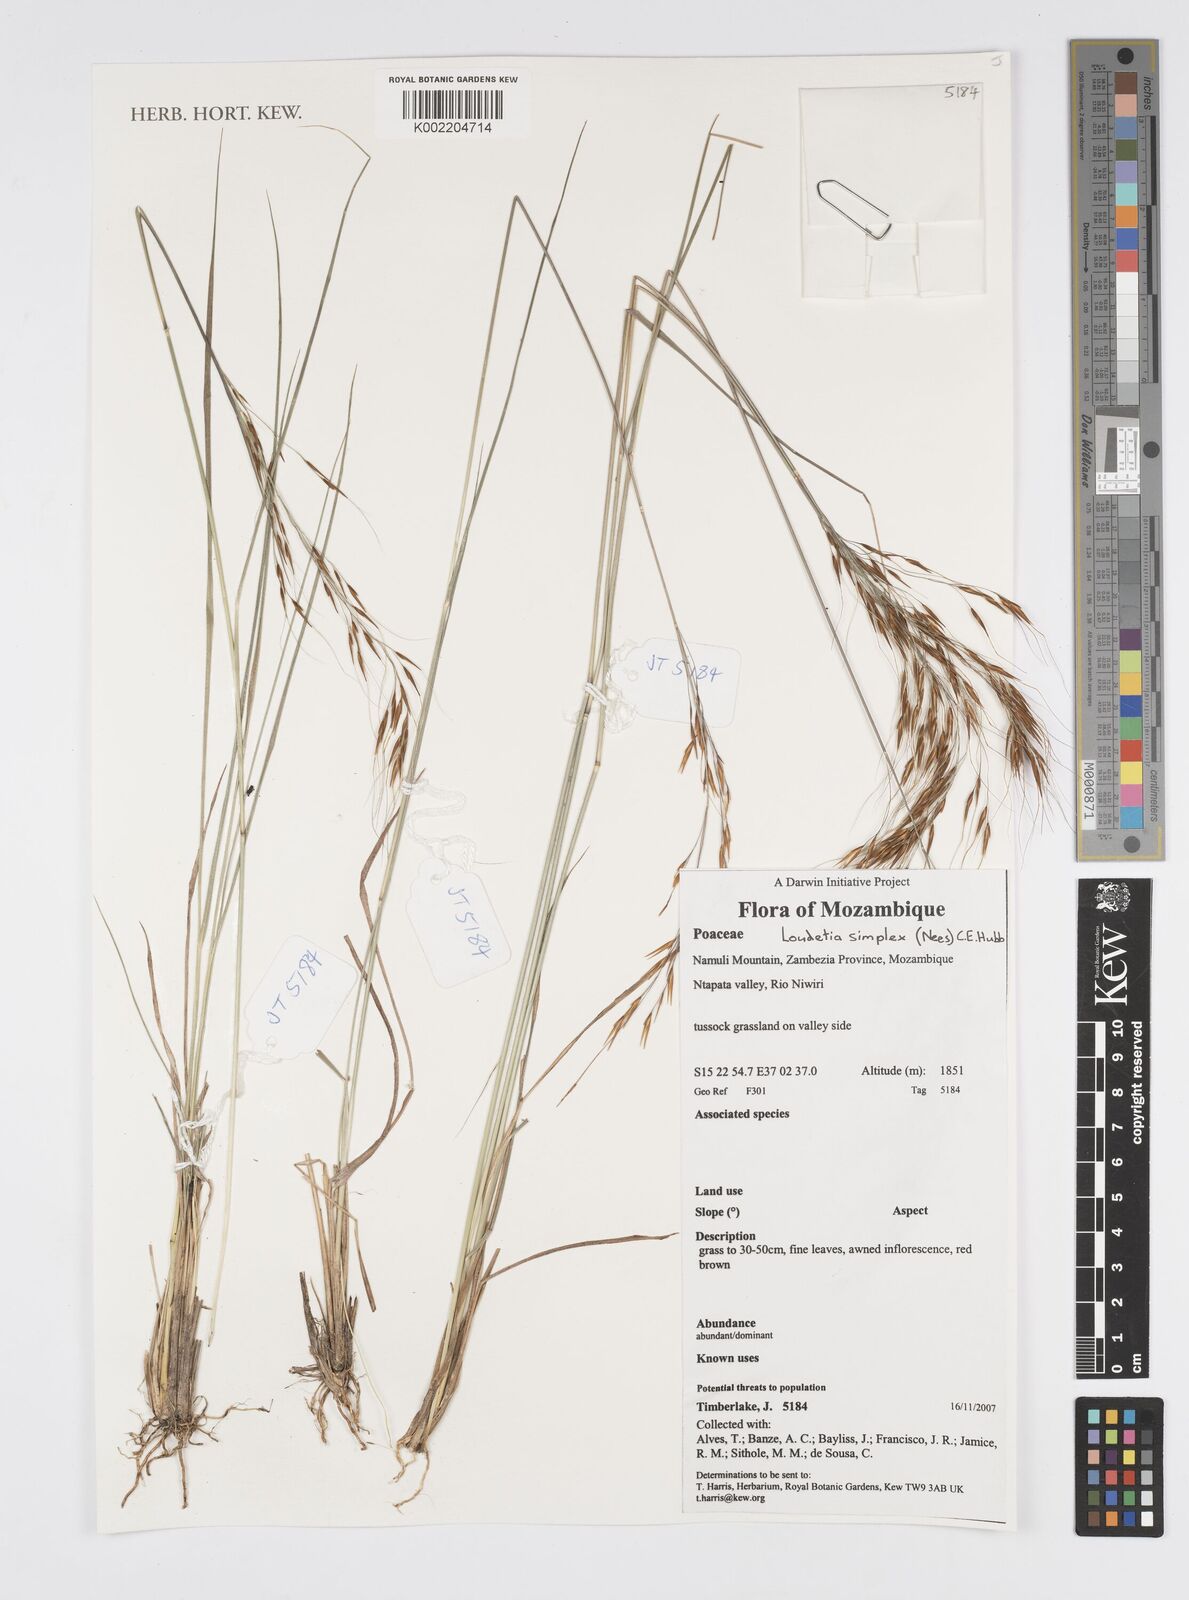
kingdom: Plantae
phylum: Tracheophyta
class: Liliopsida
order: Poales
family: Poaceae
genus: Loudetia
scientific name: Loudetia simplex
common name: Common russet grass
